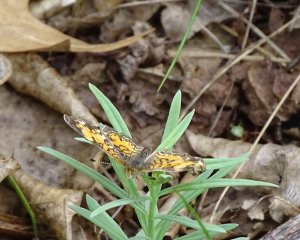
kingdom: Animalia
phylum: Arthropoda
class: Insecta
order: Lepidoptera
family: Nymphalidae
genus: Phyciodes
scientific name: Phyciodes
